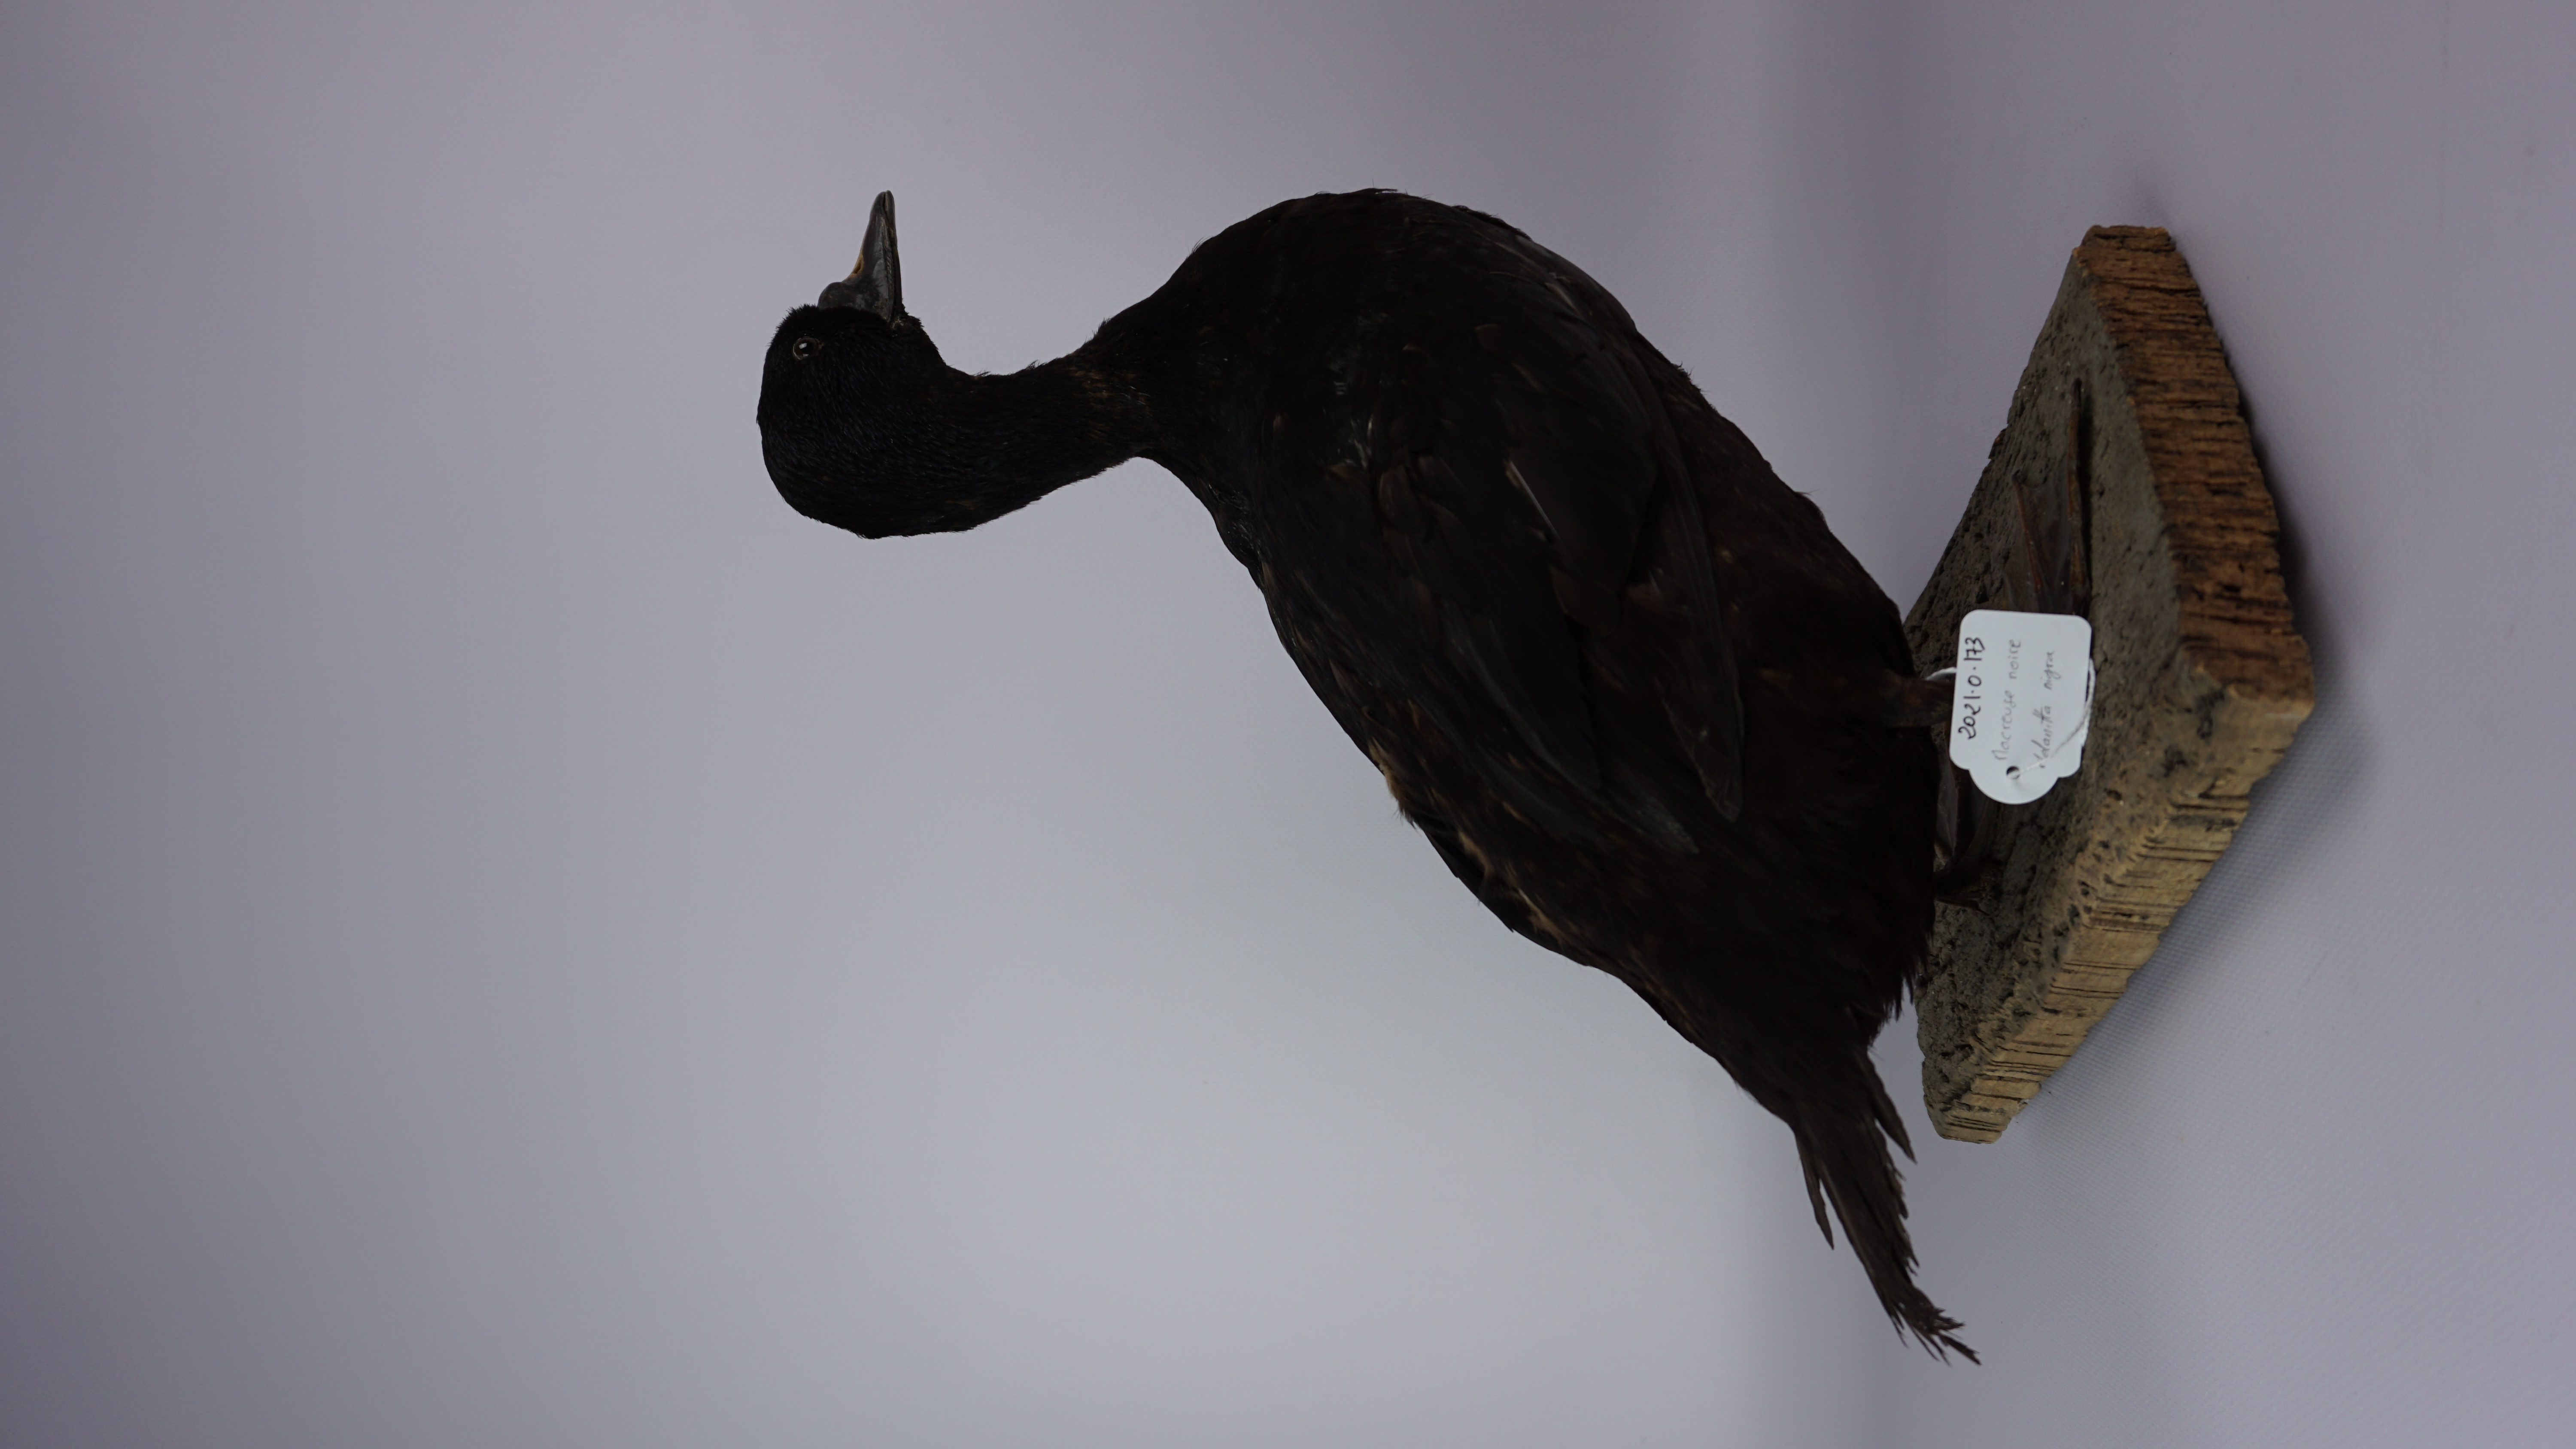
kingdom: Animalia
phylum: Chordata
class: Aves
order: Anseriformes
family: Anatidae
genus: Melanitta
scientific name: Melanitta nigra
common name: Common scoter
